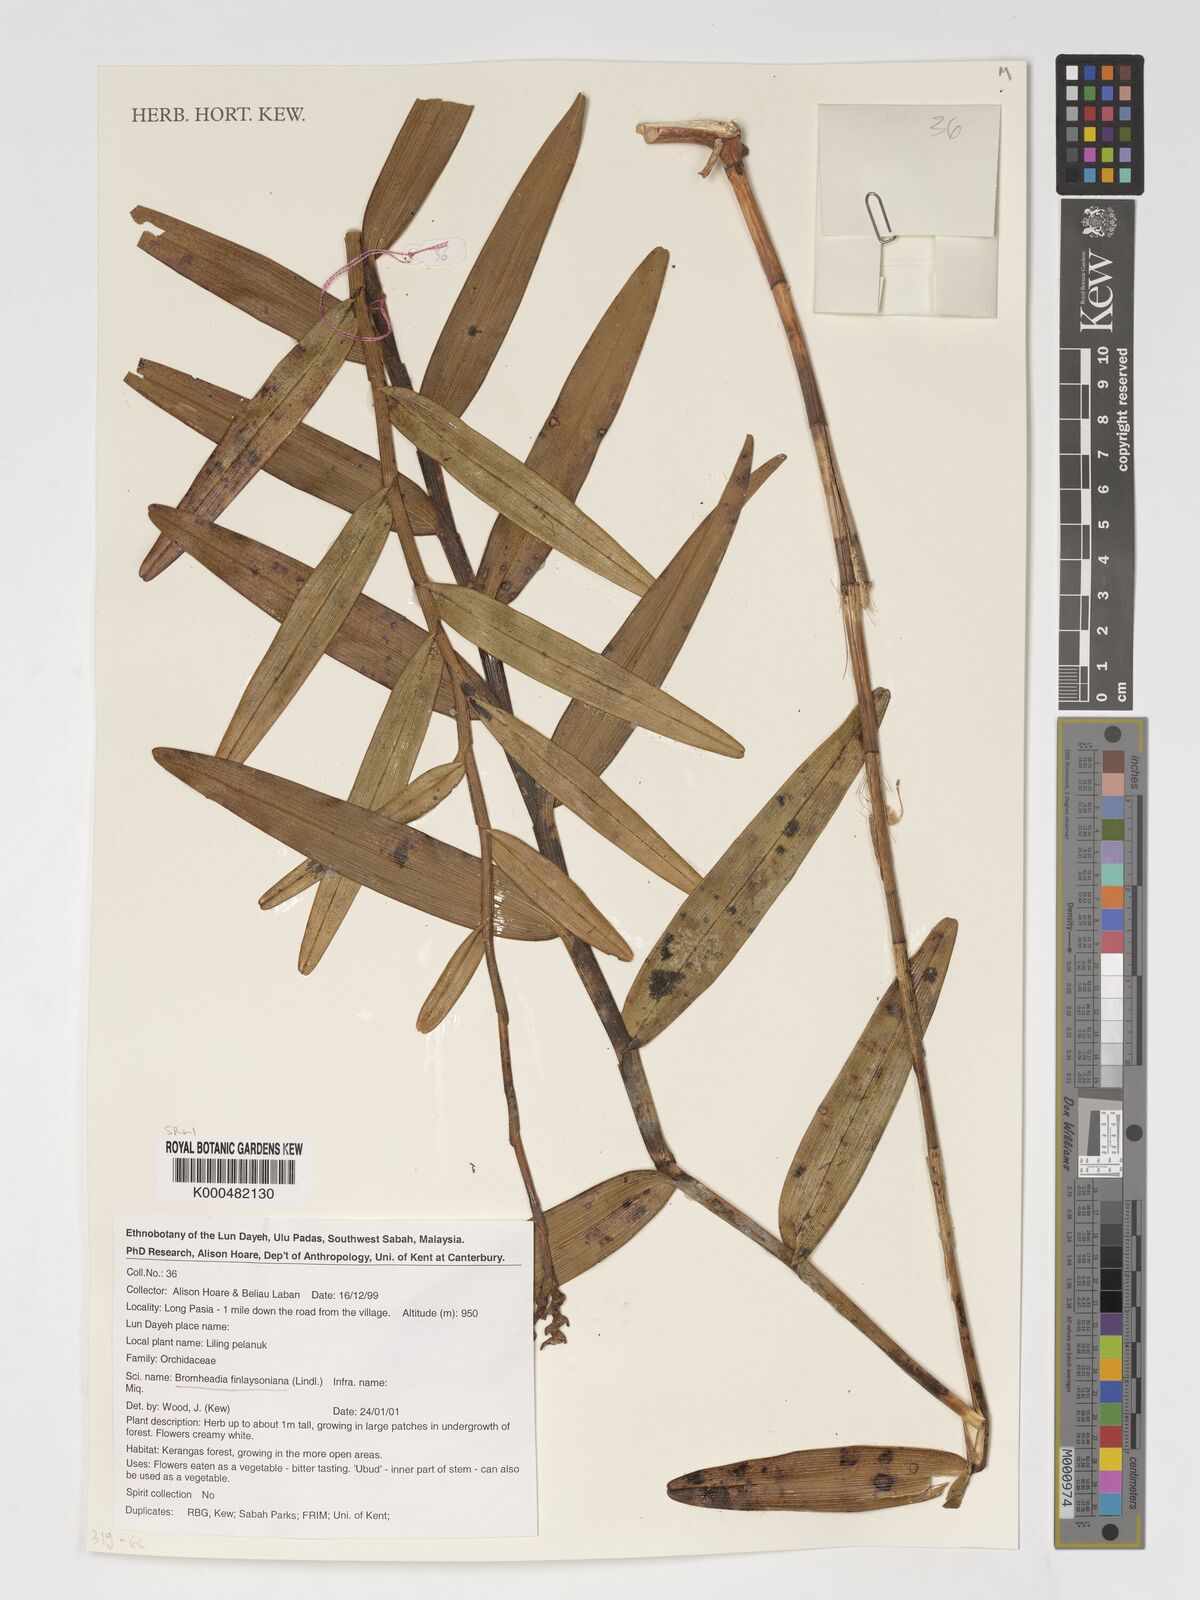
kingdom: Plantae
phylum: Tracheophyta
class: Liliopsida
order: Asparagales
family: Orchidaceae
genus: Bromheadia
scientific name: Bromheadia finlaysoniana
